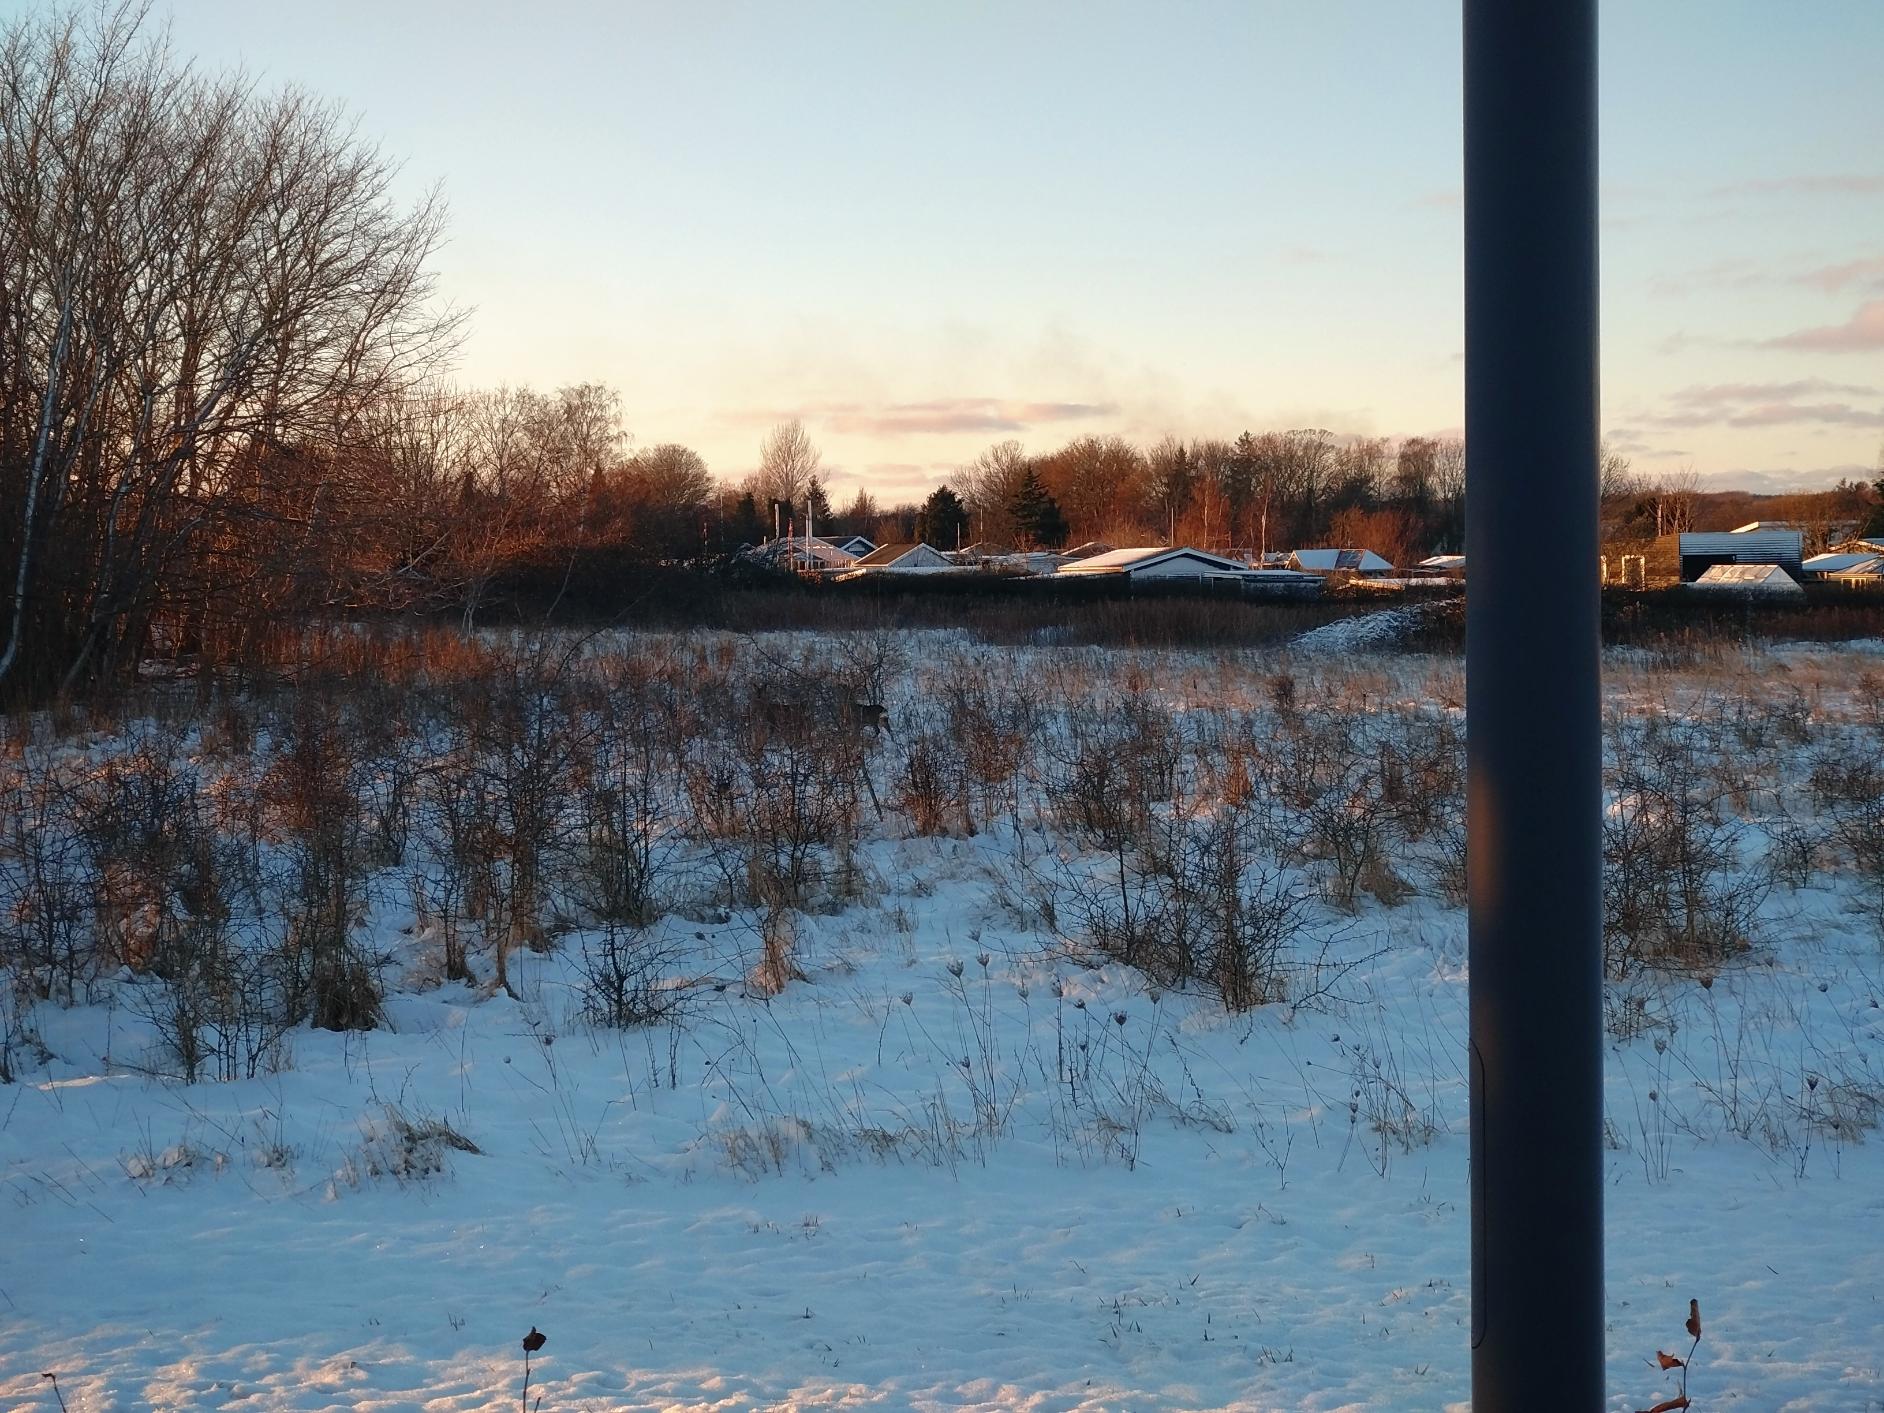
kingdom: Animalia
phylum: Chordata
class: Mammalia
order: Artiodactyla
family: Cervidae
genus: Capreolus
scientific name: Capreolus capreolus
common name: Rådyr
